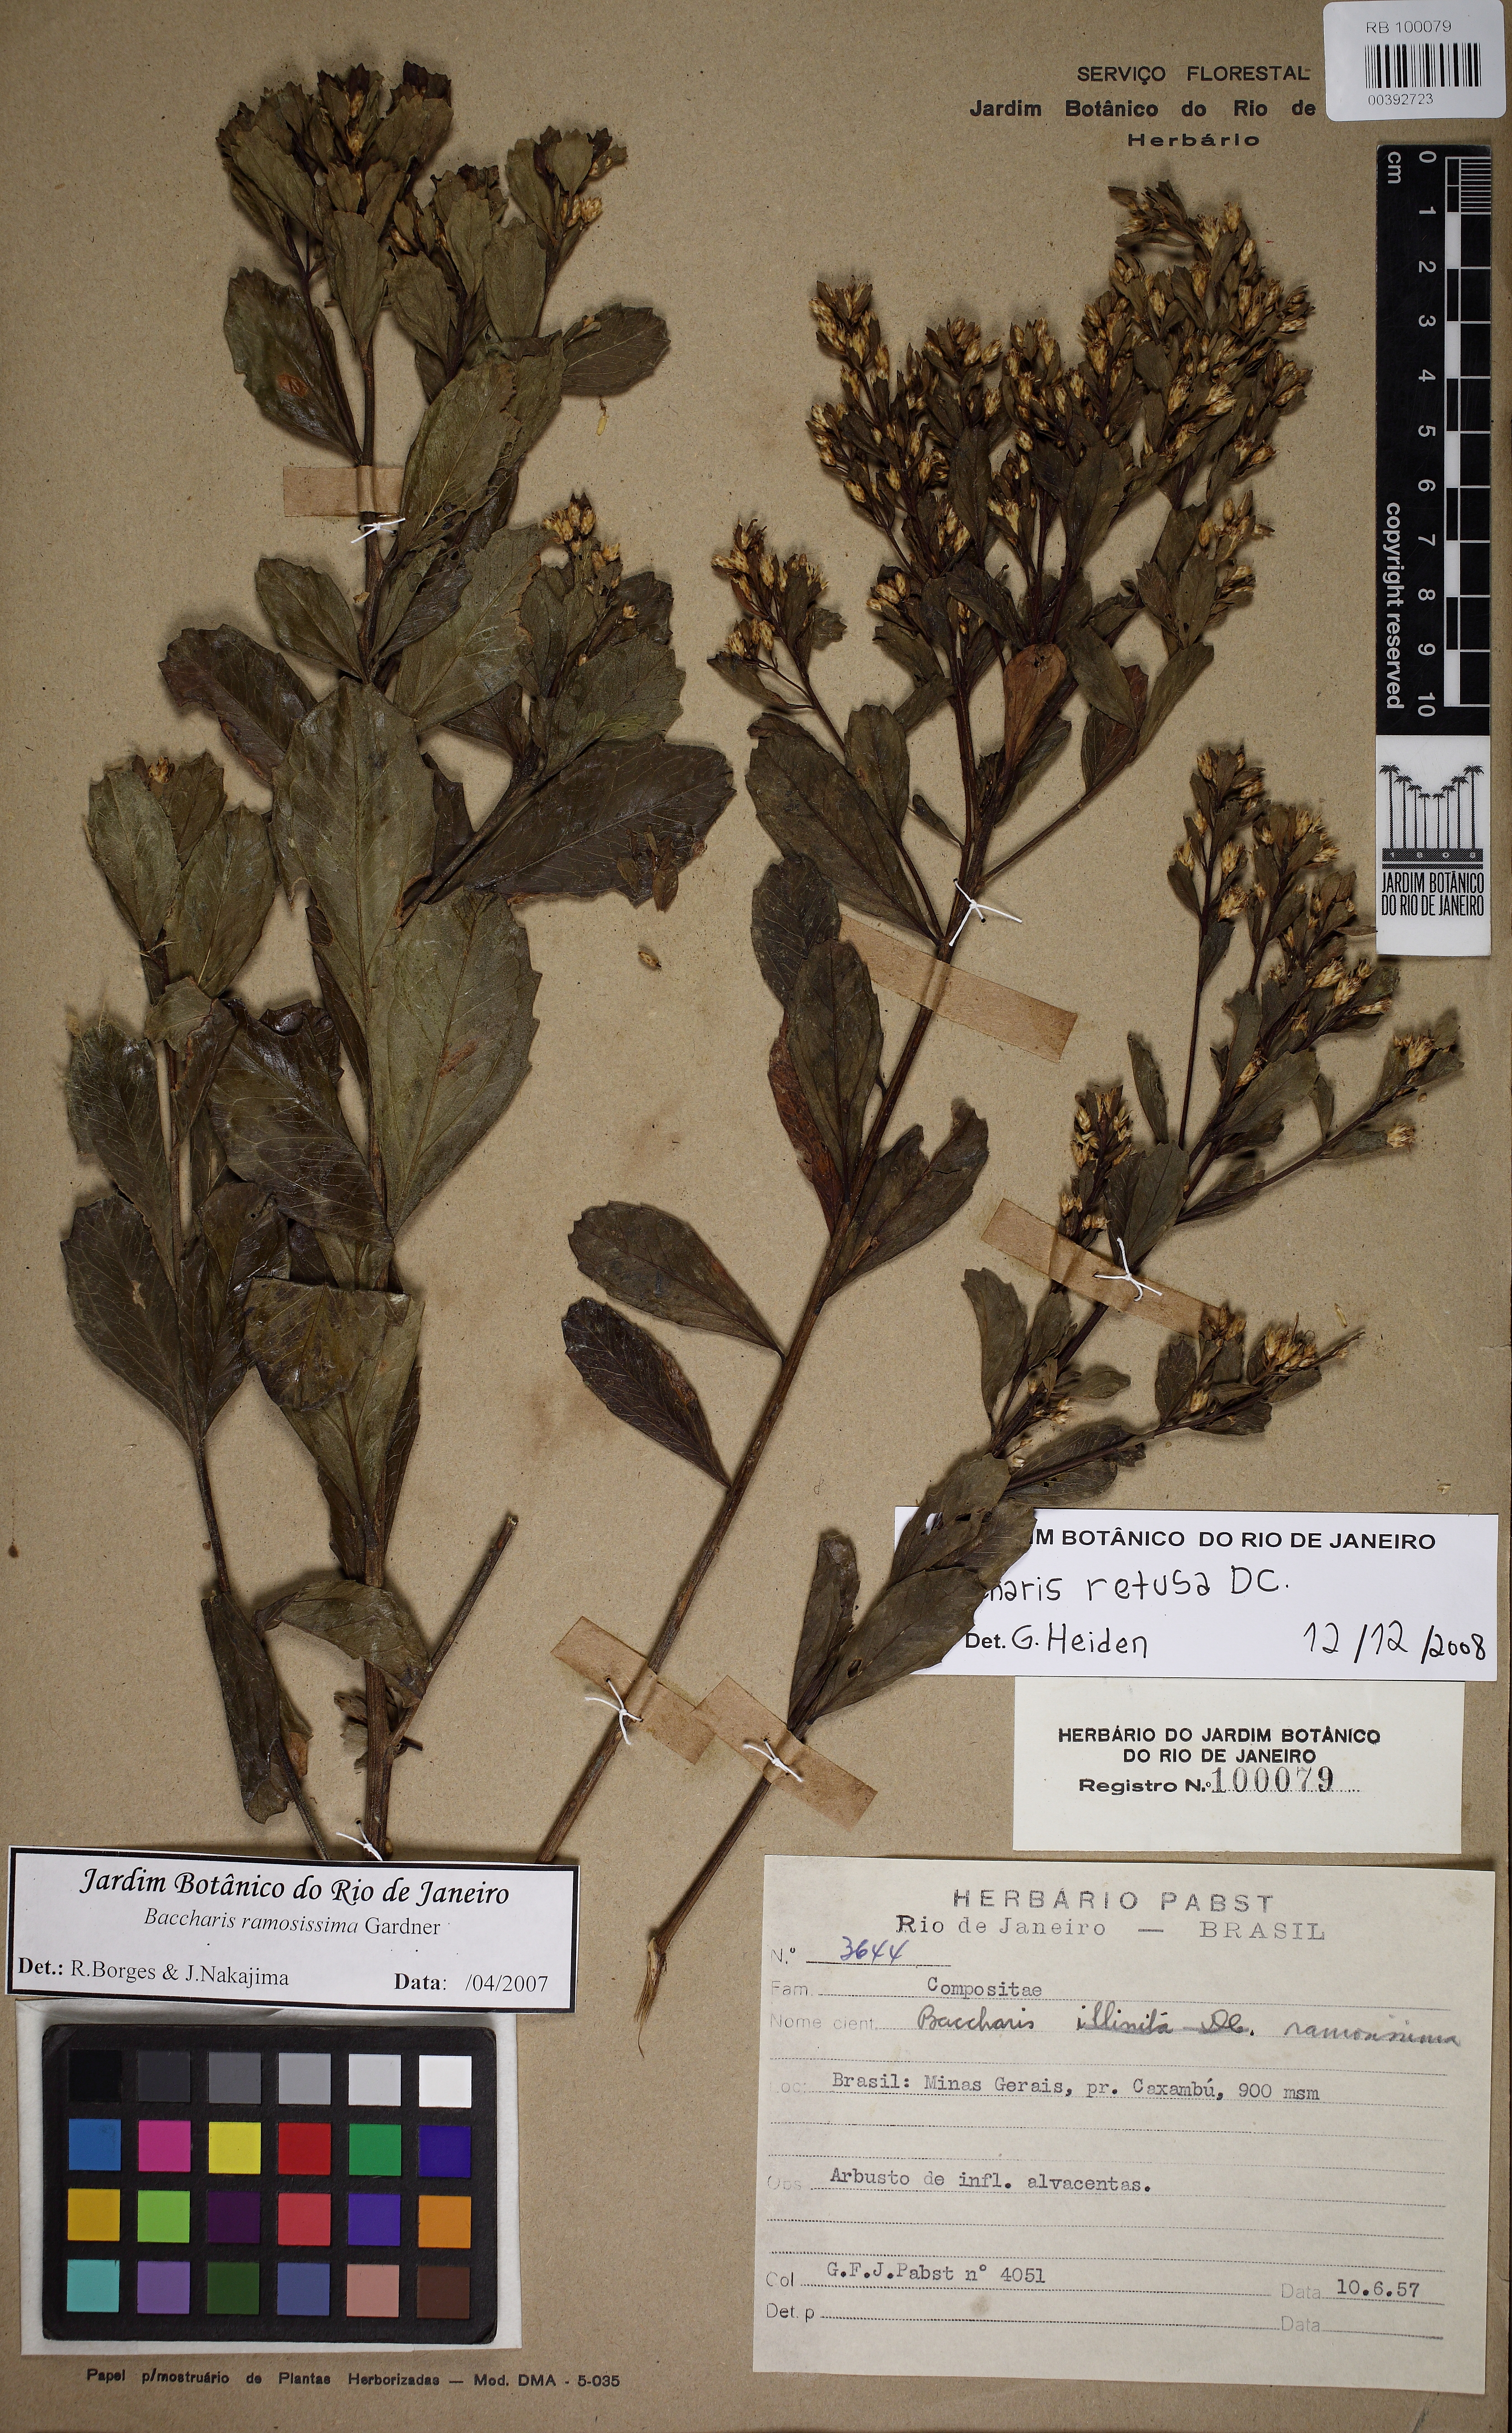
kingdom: Plantae
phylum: Tracheophyta
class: Magnoliopsida
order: Asterales
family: Asteraceae
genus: Baccharis
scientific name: Baccharis retusa
